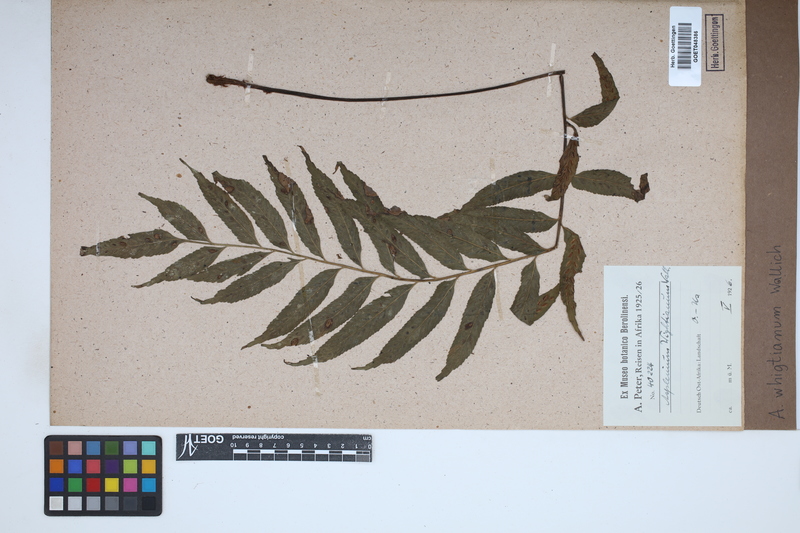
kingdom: Plantae
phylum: Tracheophyta
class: Polypodiopsida
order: Polypodiales
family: Aspleniaceae
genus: Asplenium
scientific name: Asplenium serricula
